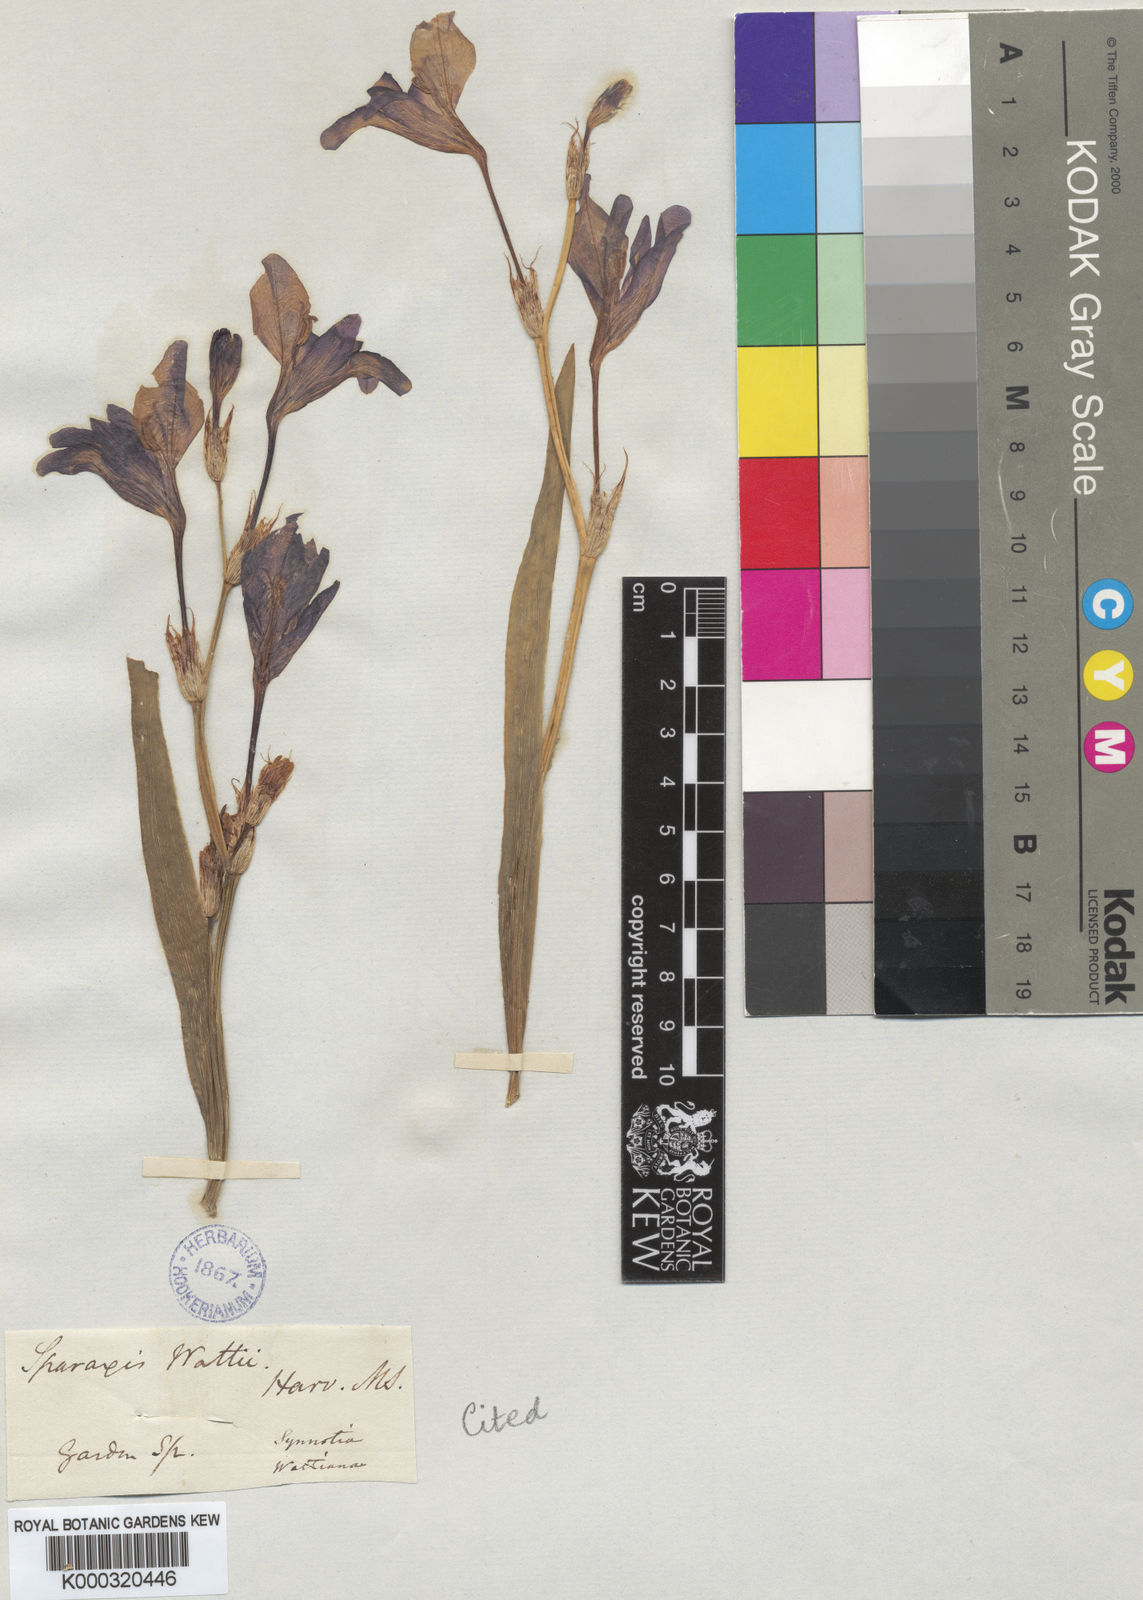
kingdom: Plantae
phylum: Tracheophyta
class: Liliopsida
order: Asparagales
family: Iridaceae
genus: Sparaxis
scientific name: Sparaxis variegata
